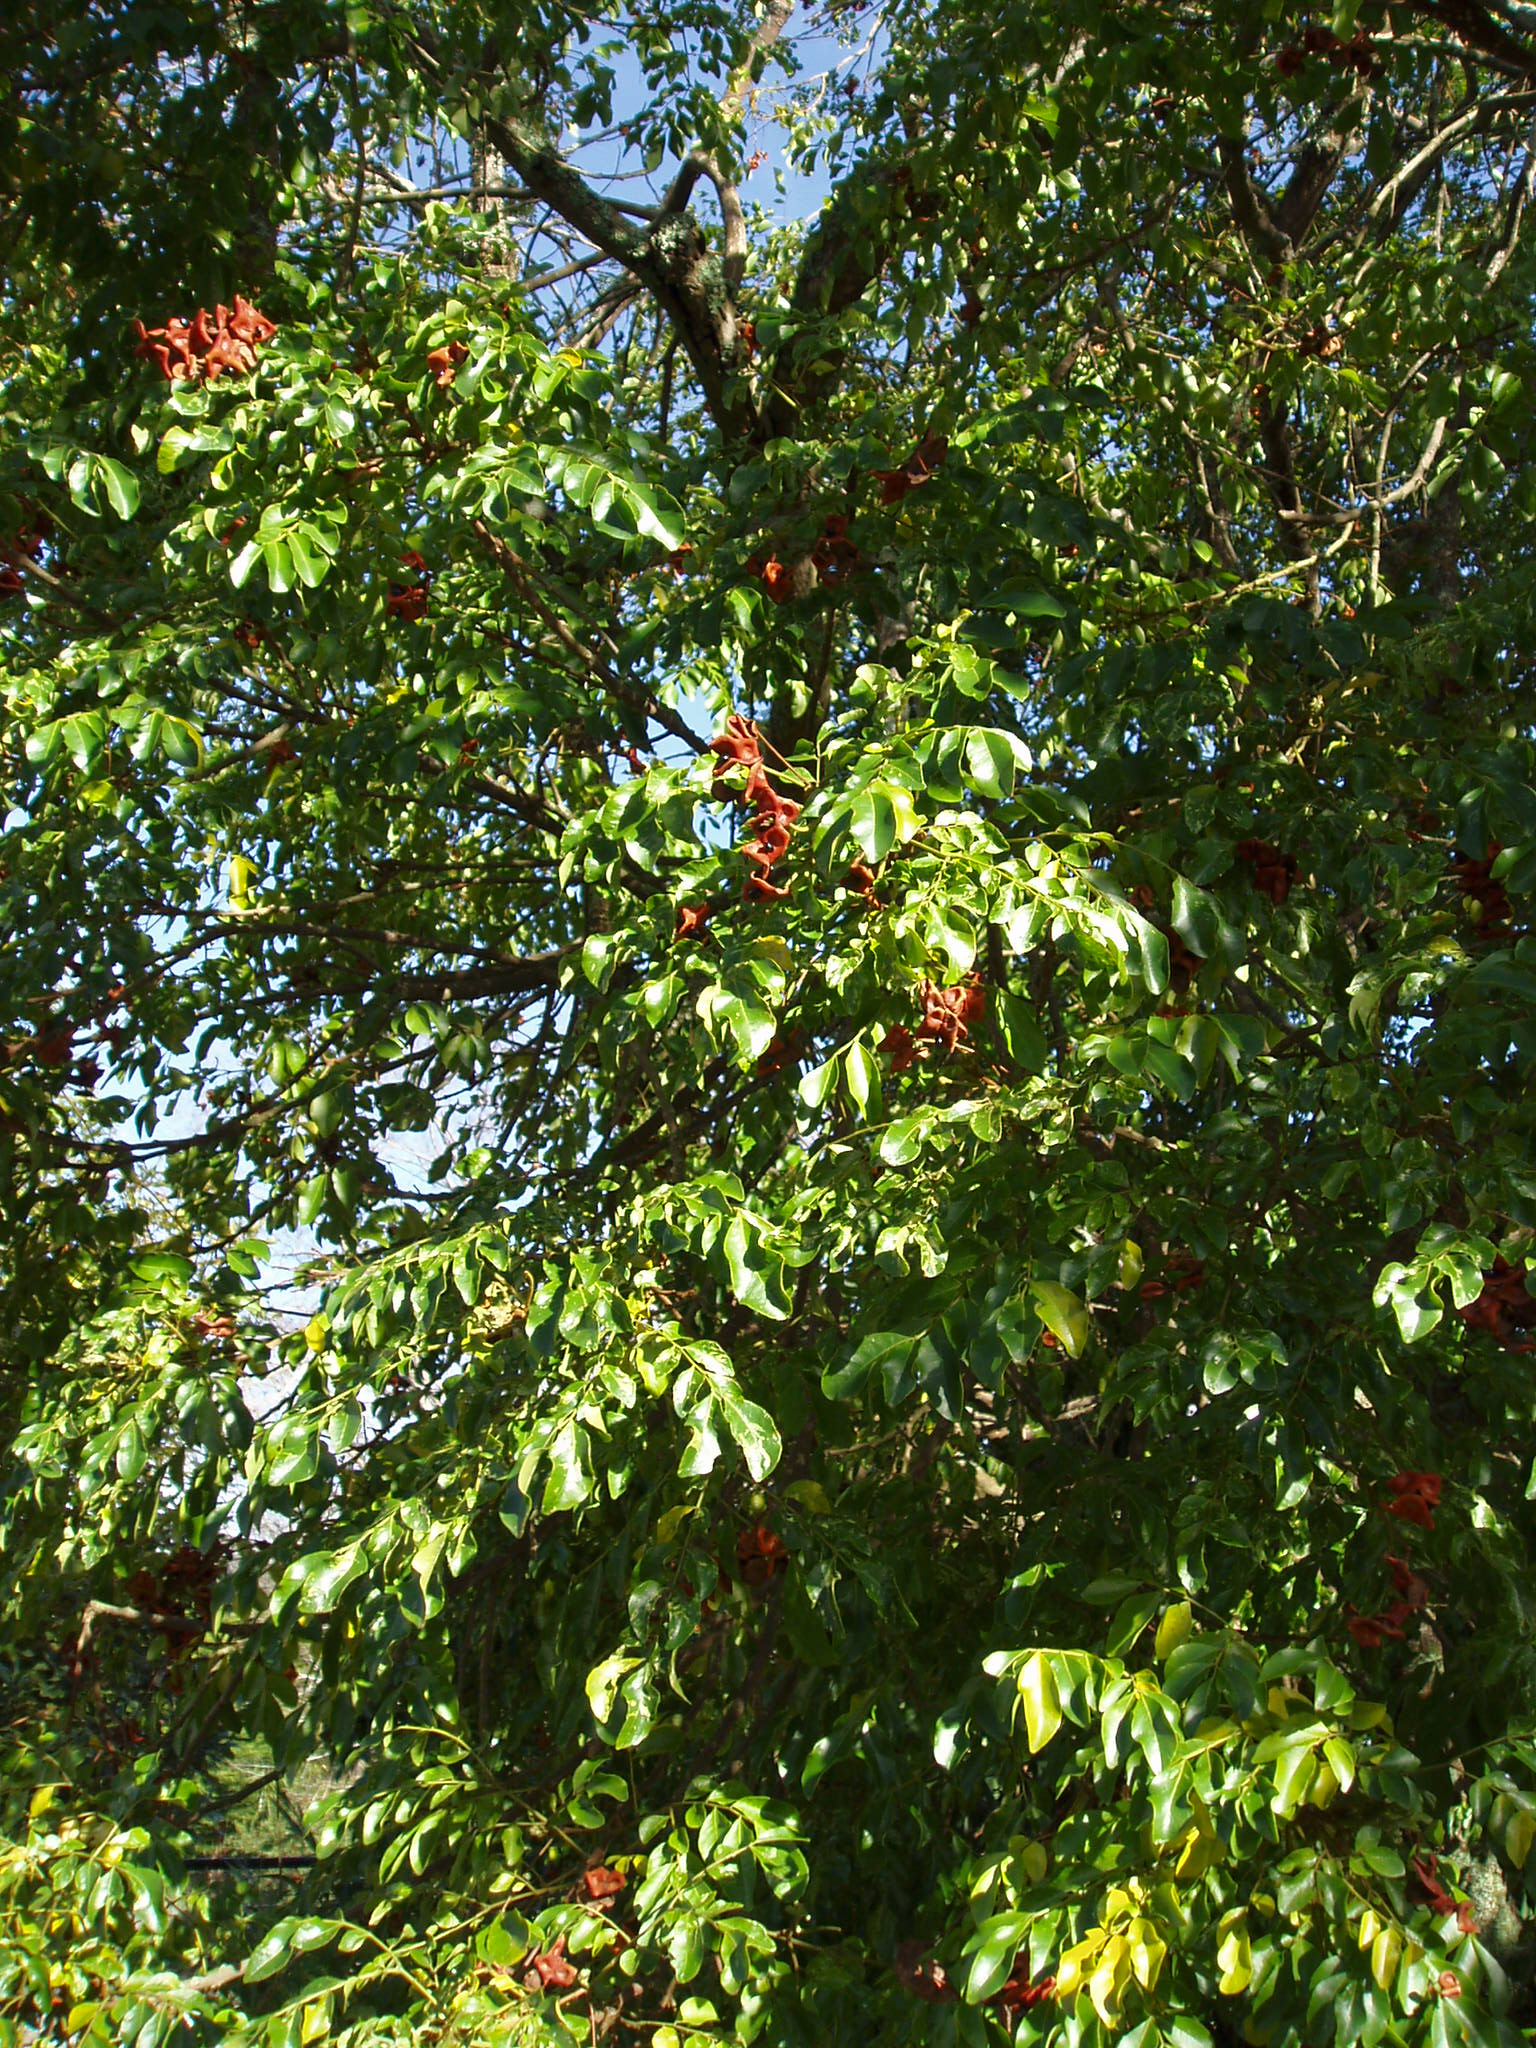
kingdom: Plantae
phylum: Tracheophyta
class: Magnoliopsida
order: Fabales
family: Fabaceae
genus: Pararchidendron
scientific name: Pararchidendron pruinosum
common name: Tulip siris
